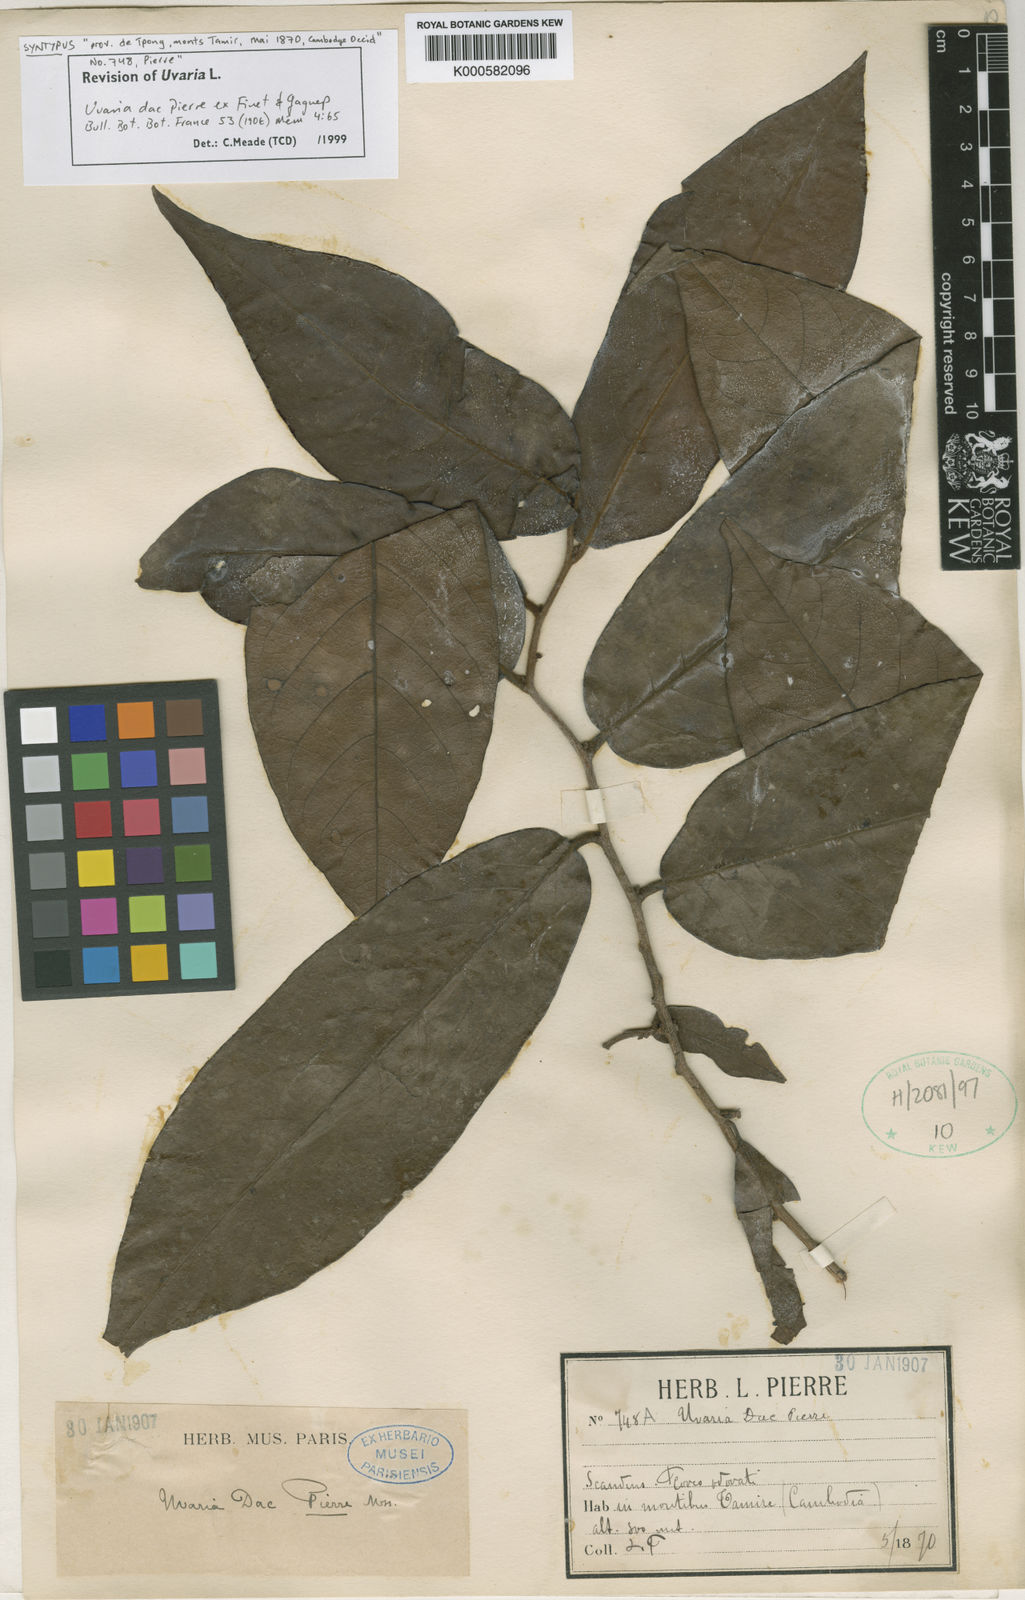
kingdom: Plantae
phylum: Tracheophyta
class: Magnoliopsida
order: Magnoliales
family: Annonaceae
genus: Uvaria
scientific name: Uvaria dac
